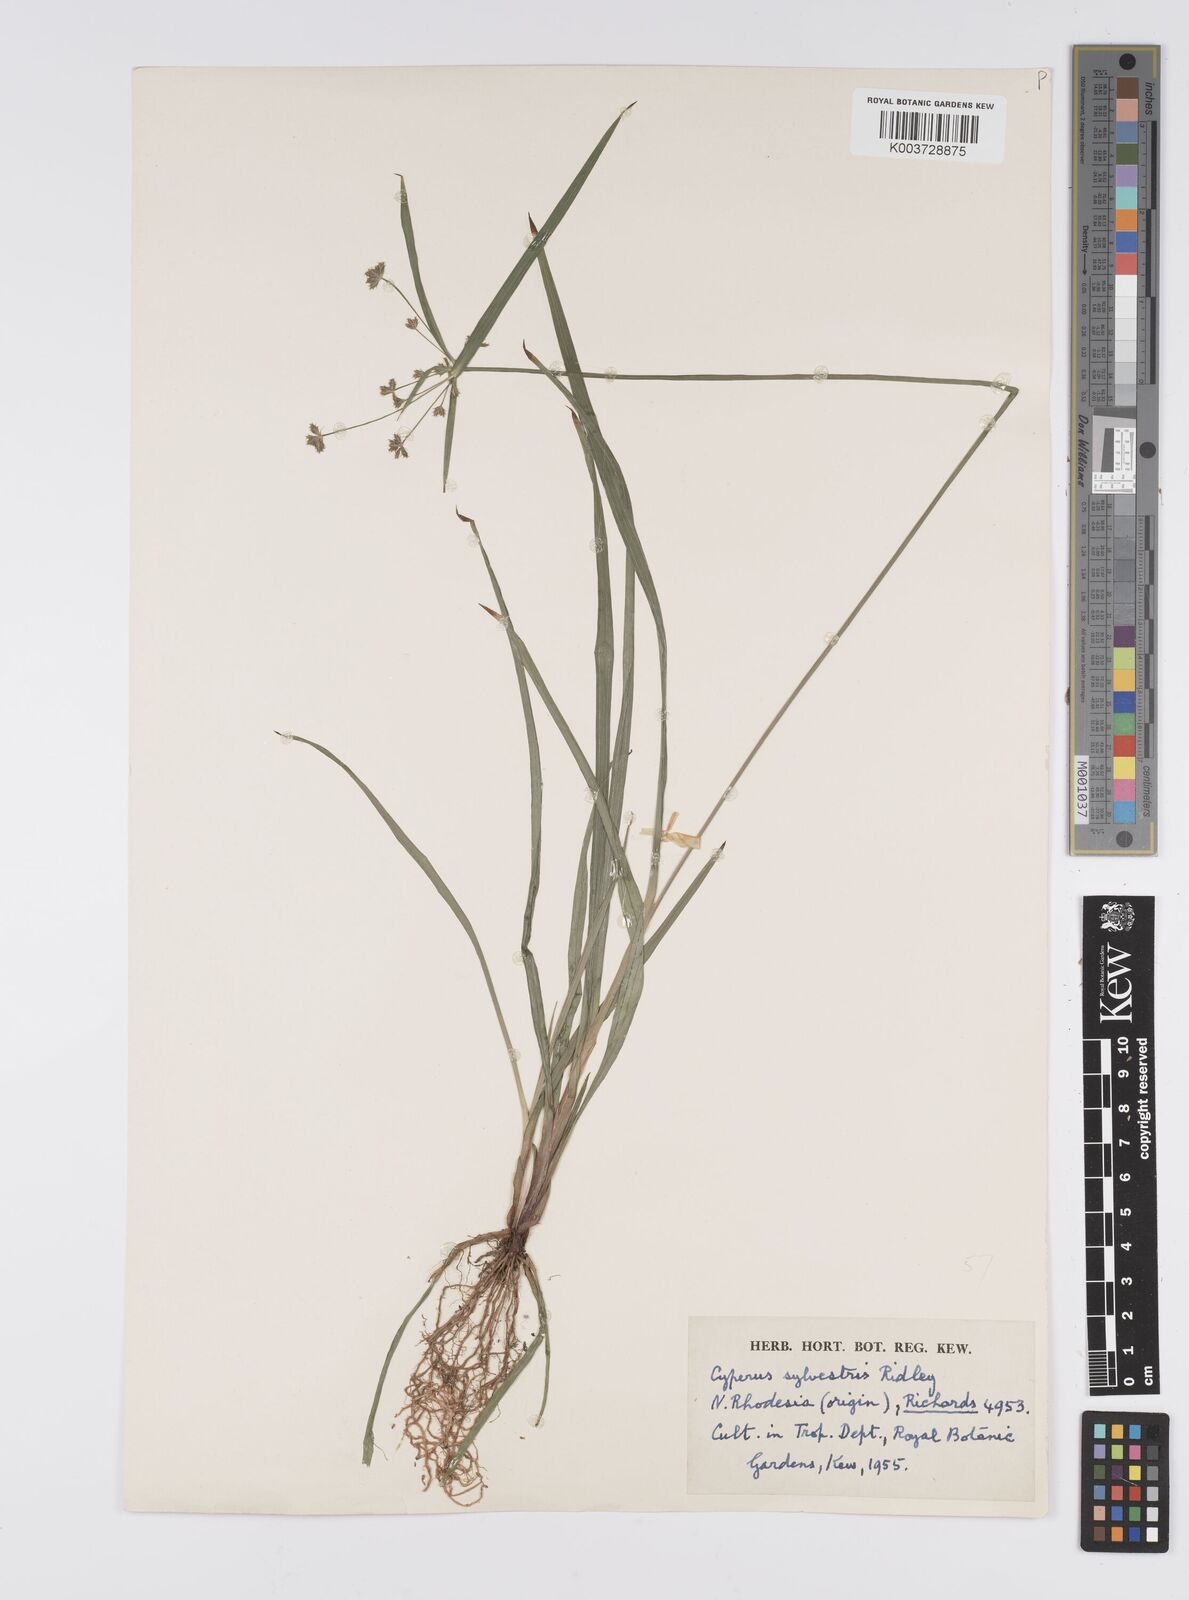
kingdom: Plantae
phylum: Tracheophyta
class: Liliopsida
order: Poales
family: Cyperaceae
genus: Cyperus
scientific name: Cyperus diffusus
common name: Dwarf umbrella grass
